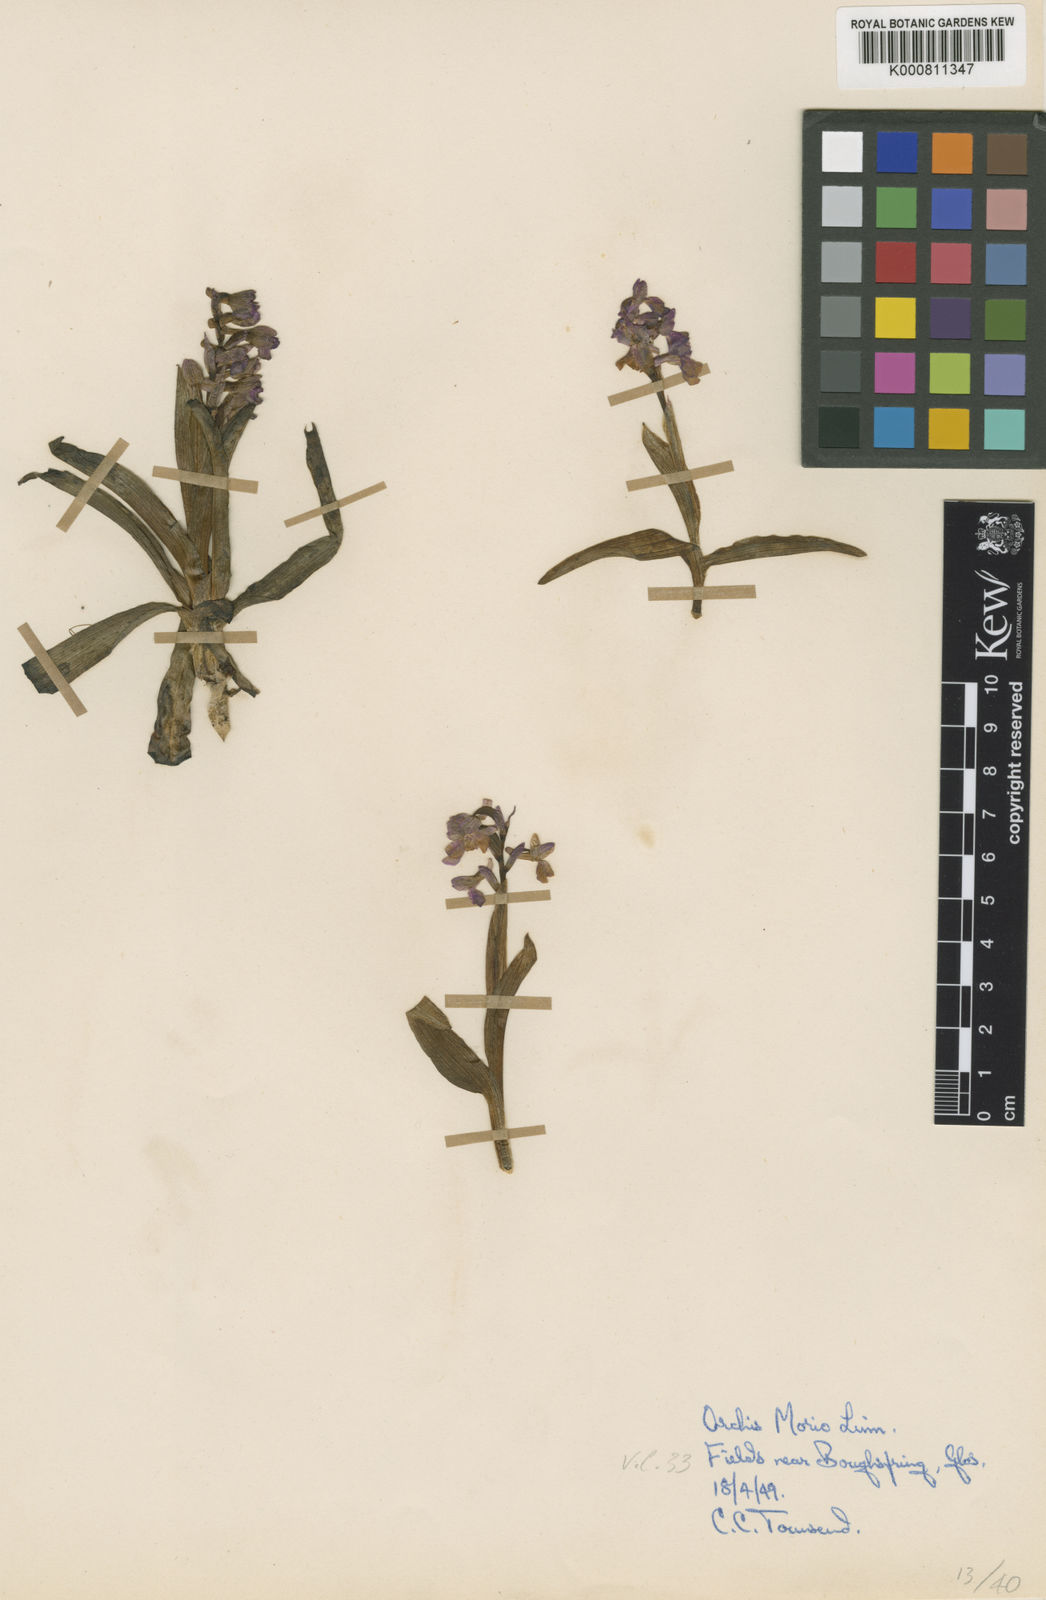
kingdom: Plantae
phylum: Tracheophyta
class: Liliopsida
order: Asparagales
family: Orchidaceae
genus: Anacamptis
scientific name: Anacamptis morio
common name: Green-winged orchid
